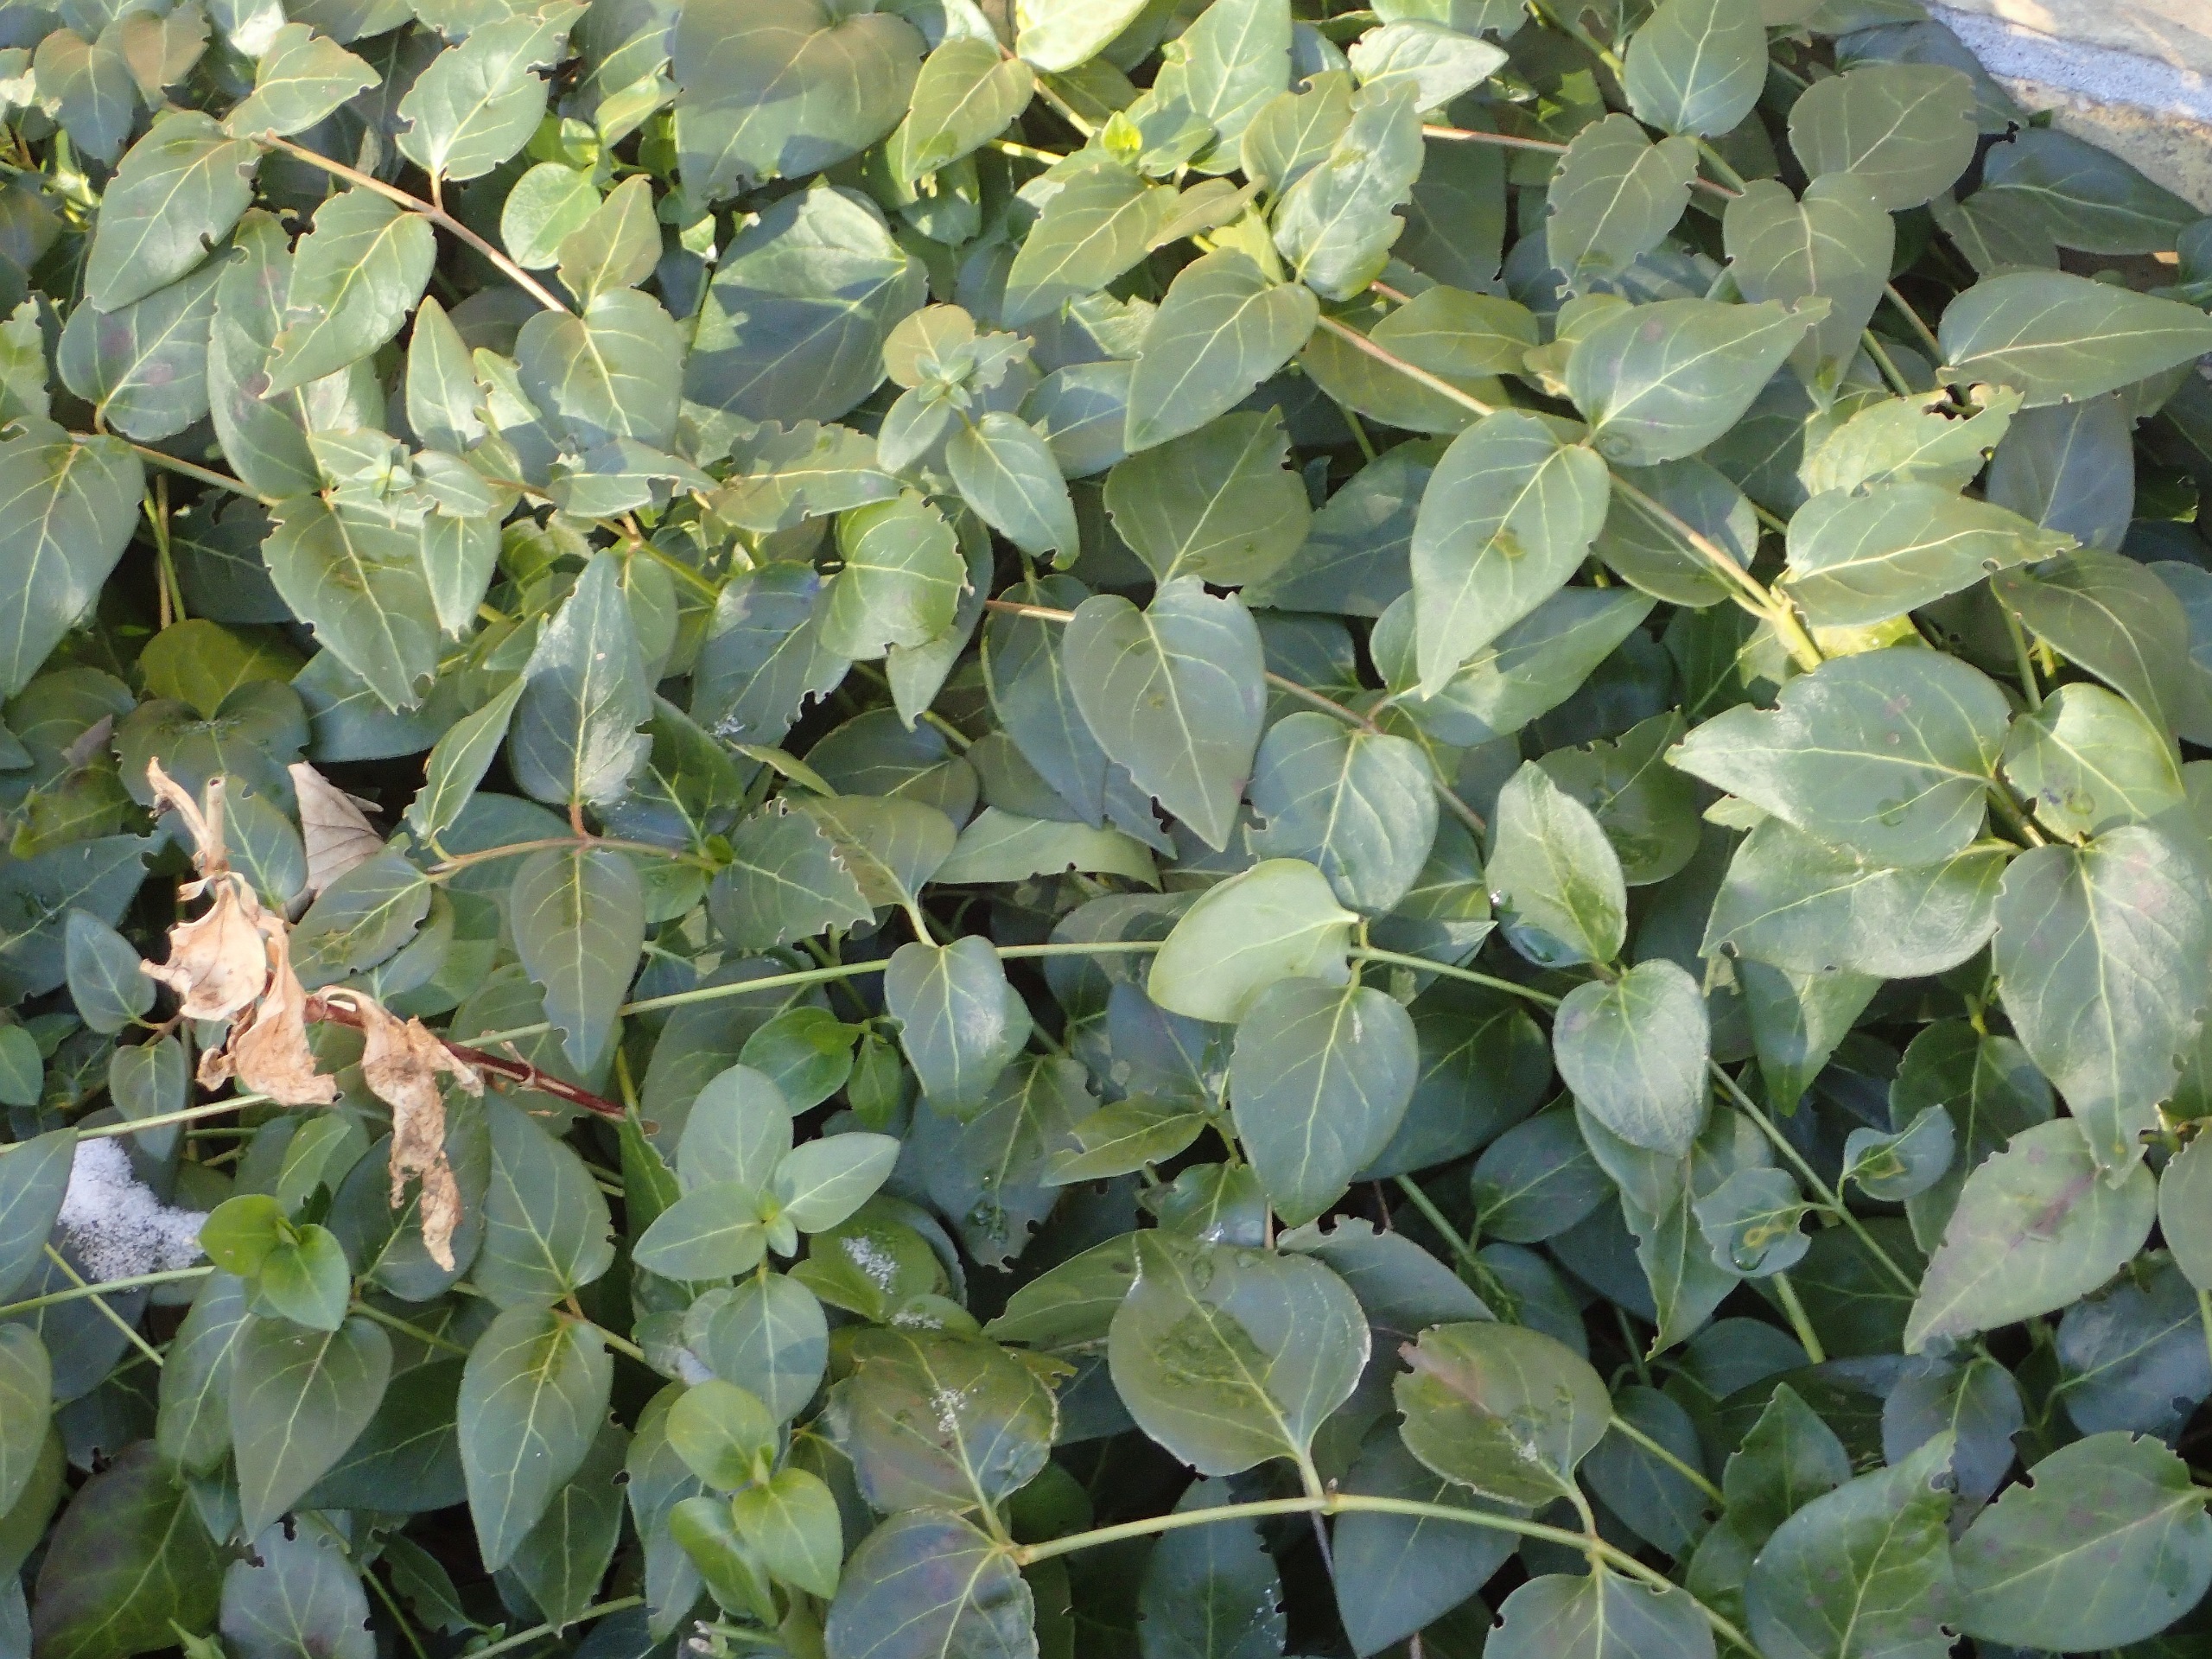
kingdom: Plantae
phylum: Tracheophyta
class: Magnoliopsida
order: Gentianales
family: Apocynaceae
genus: Vinca
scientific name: Vinca major
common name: Stor singrøn
